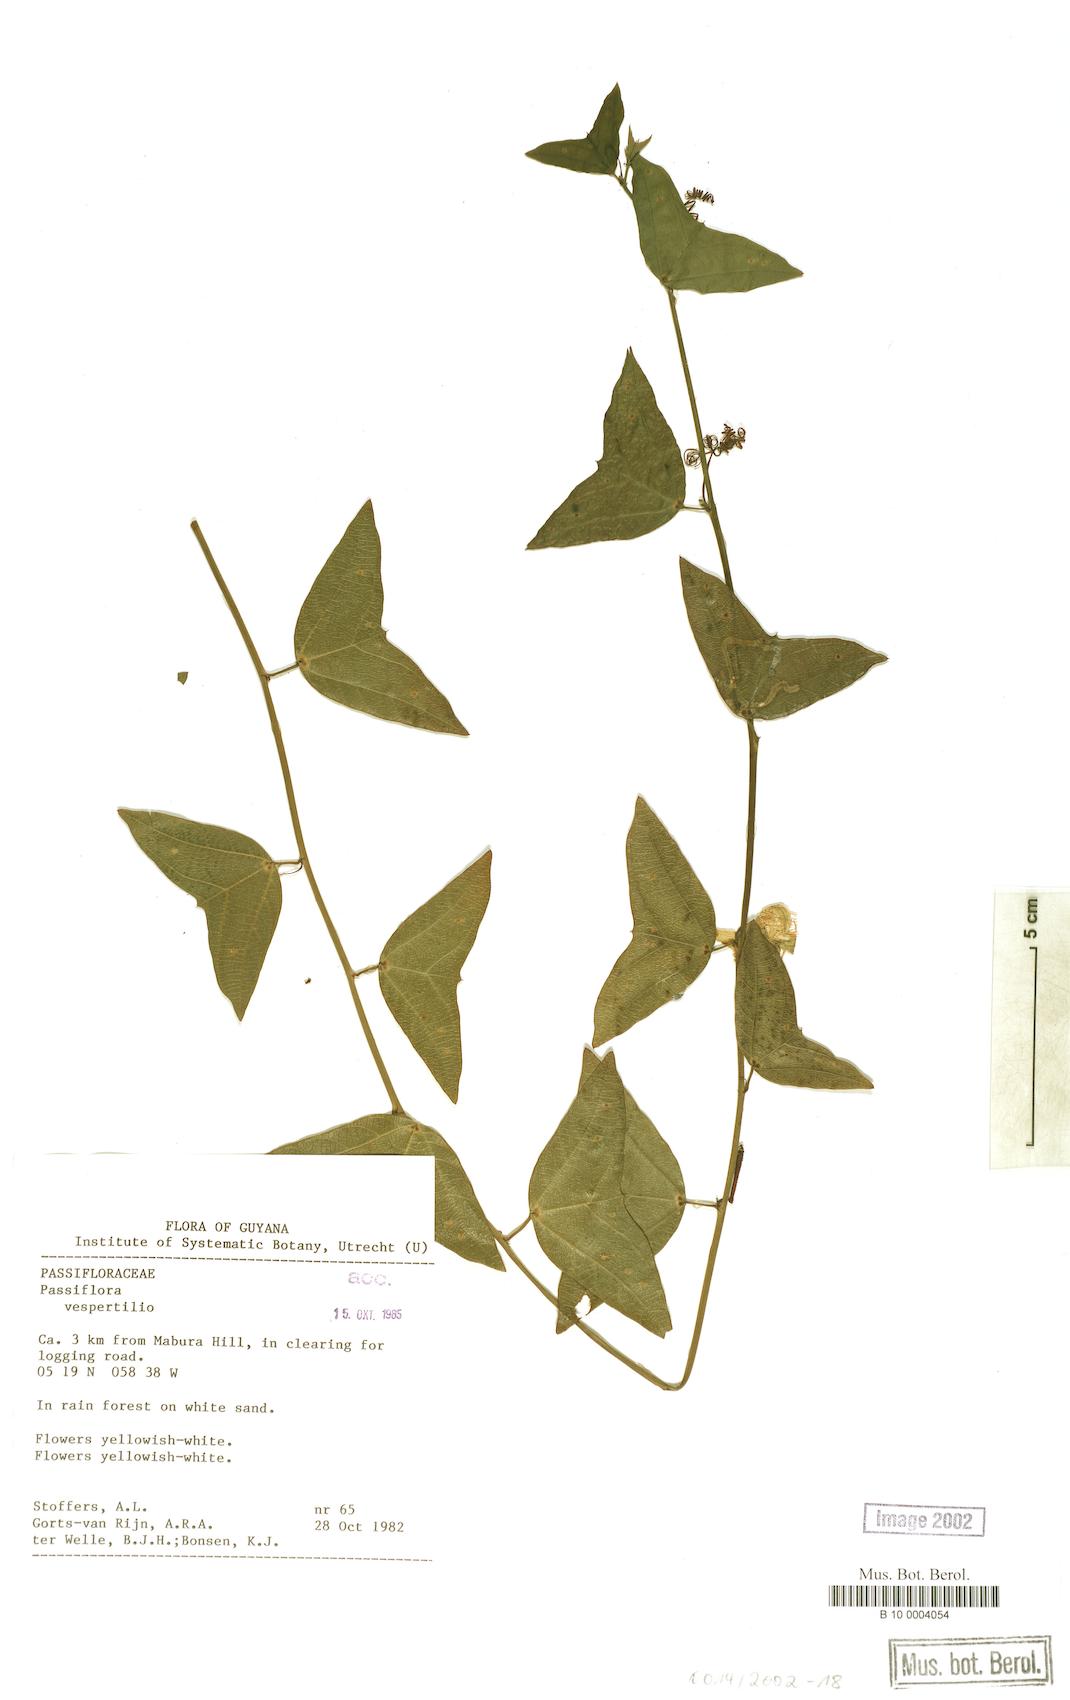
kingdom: Plantae
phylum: Tracheophyta
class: Magnoliopsida
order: Malpighiales
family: Passifloraceae
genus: Passiflora
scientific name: Passiflora vespertilio
